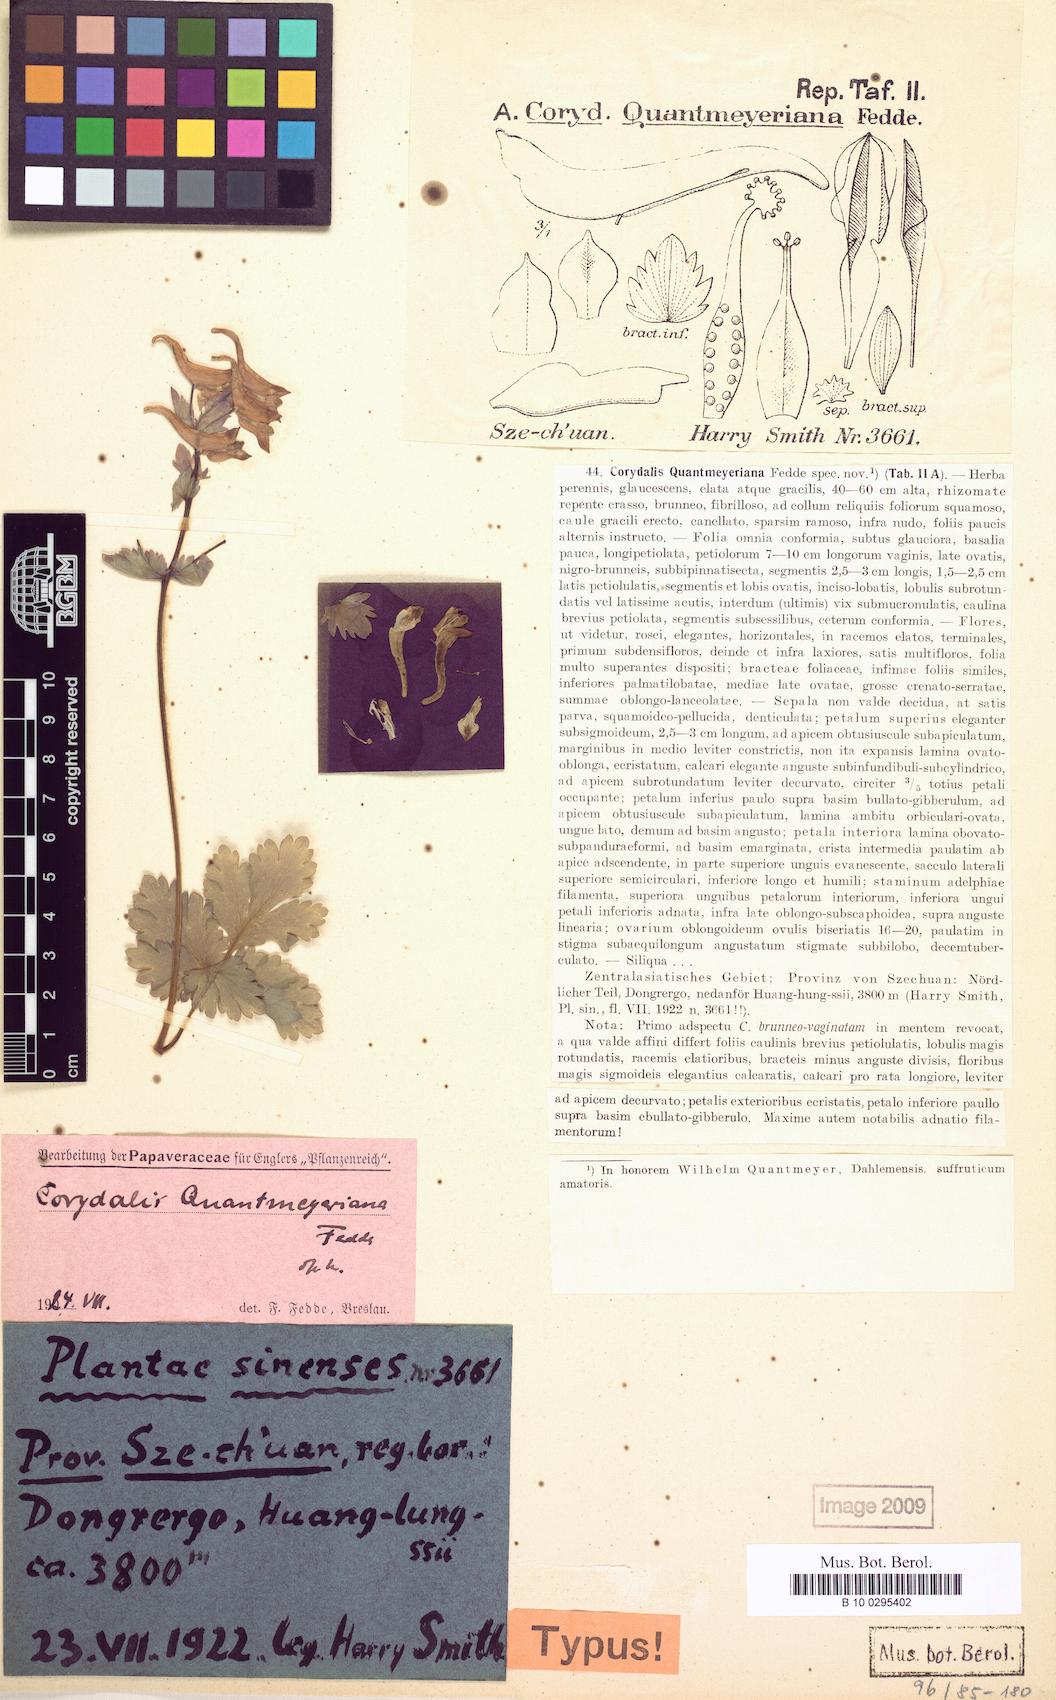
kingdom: Plantae
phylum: Tracheophyta
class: Magnoliopsida
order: Ranunculales
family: Papaveraceae
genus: Corydalis
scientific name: Corydalis quantmeyeriana
